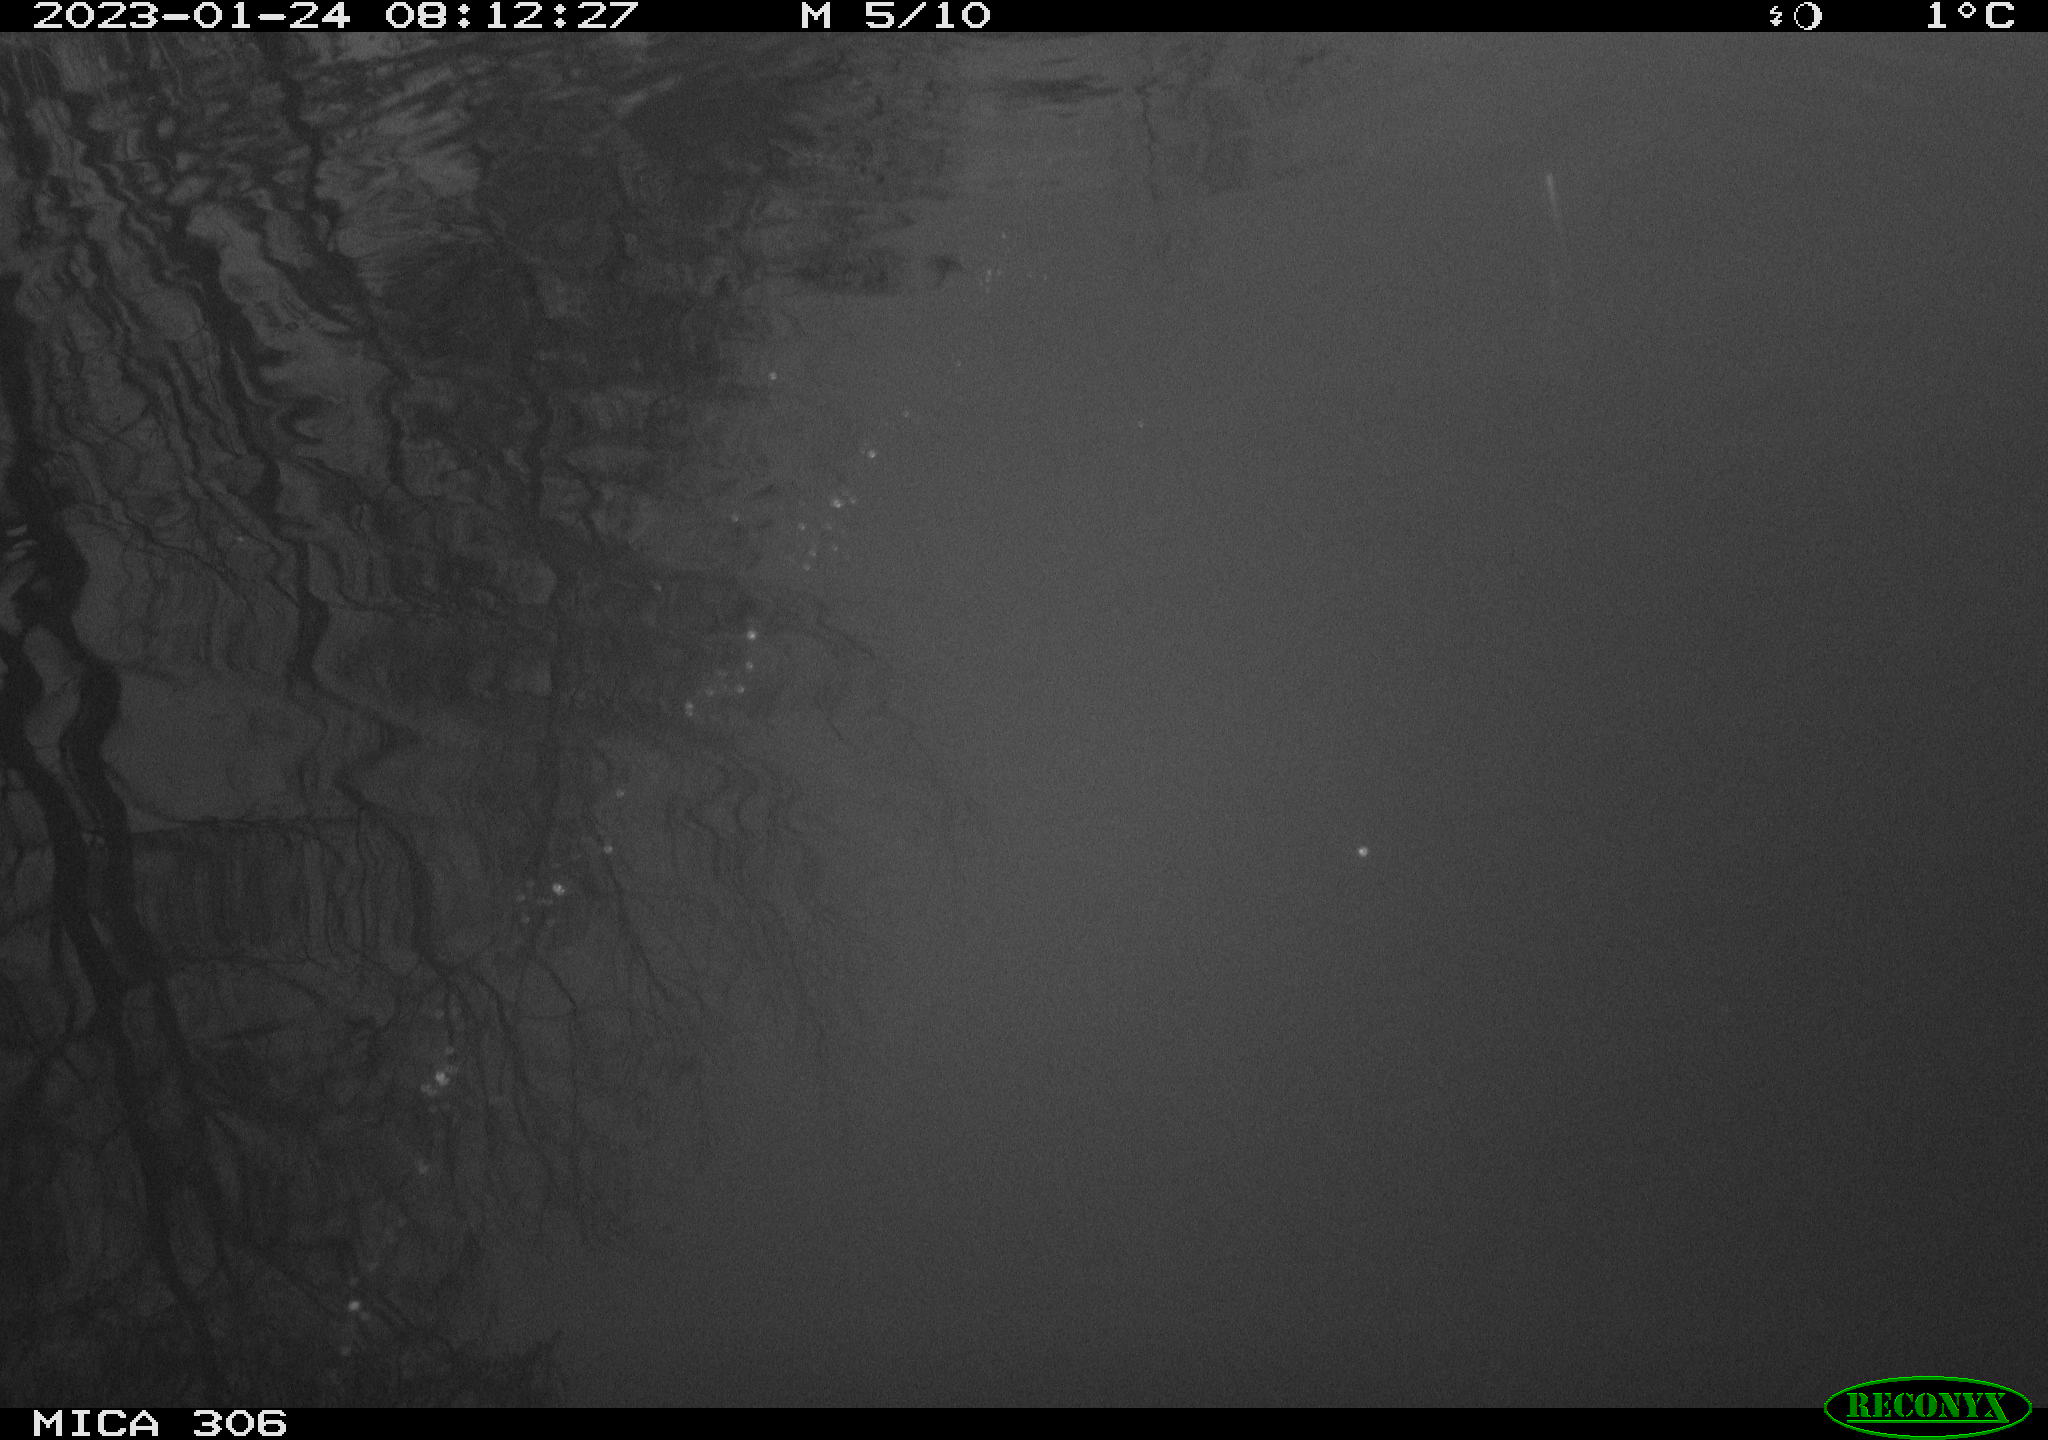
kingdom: Animalia
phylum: Chordata
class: Aves
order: Anseriformes
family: Anatidae
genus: Anas
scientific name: Anas
